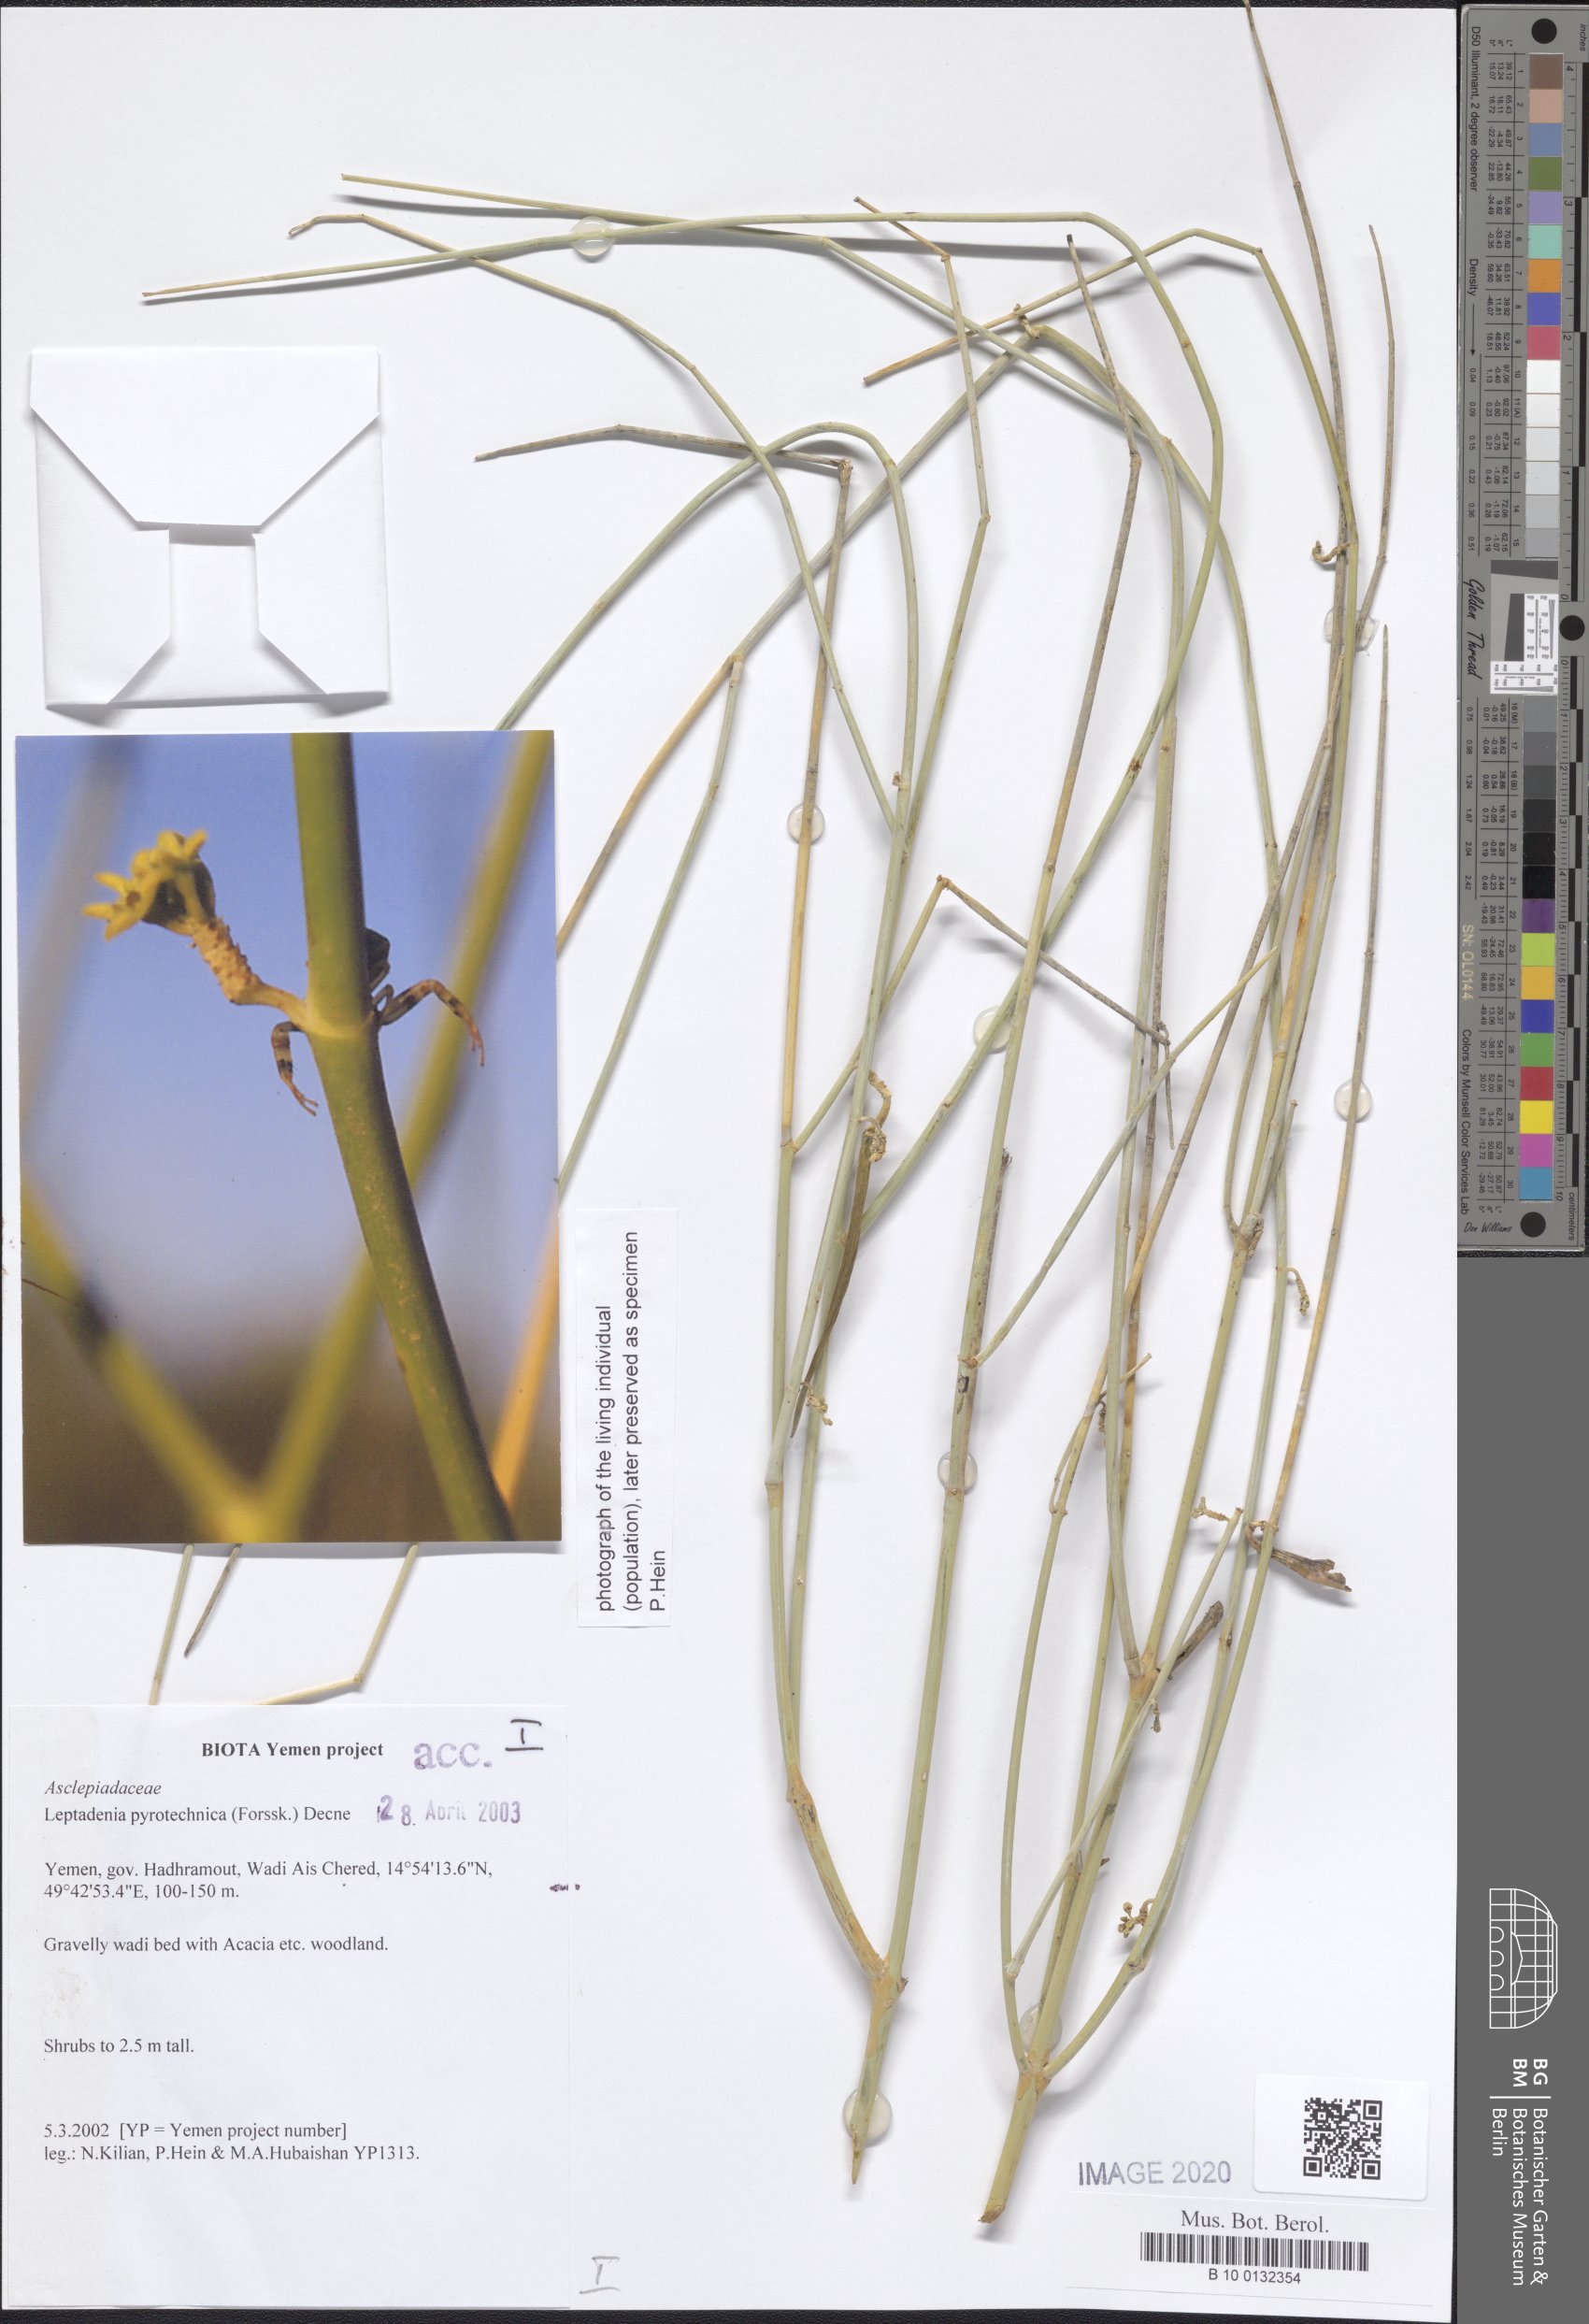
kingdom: Plantae
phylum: Tracheophyta
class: Magnoliopsida
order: Gentianales
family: Apocynaceae
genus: Leptadenia
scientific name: Leptadenia pyrotechnica
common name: Broom brush
